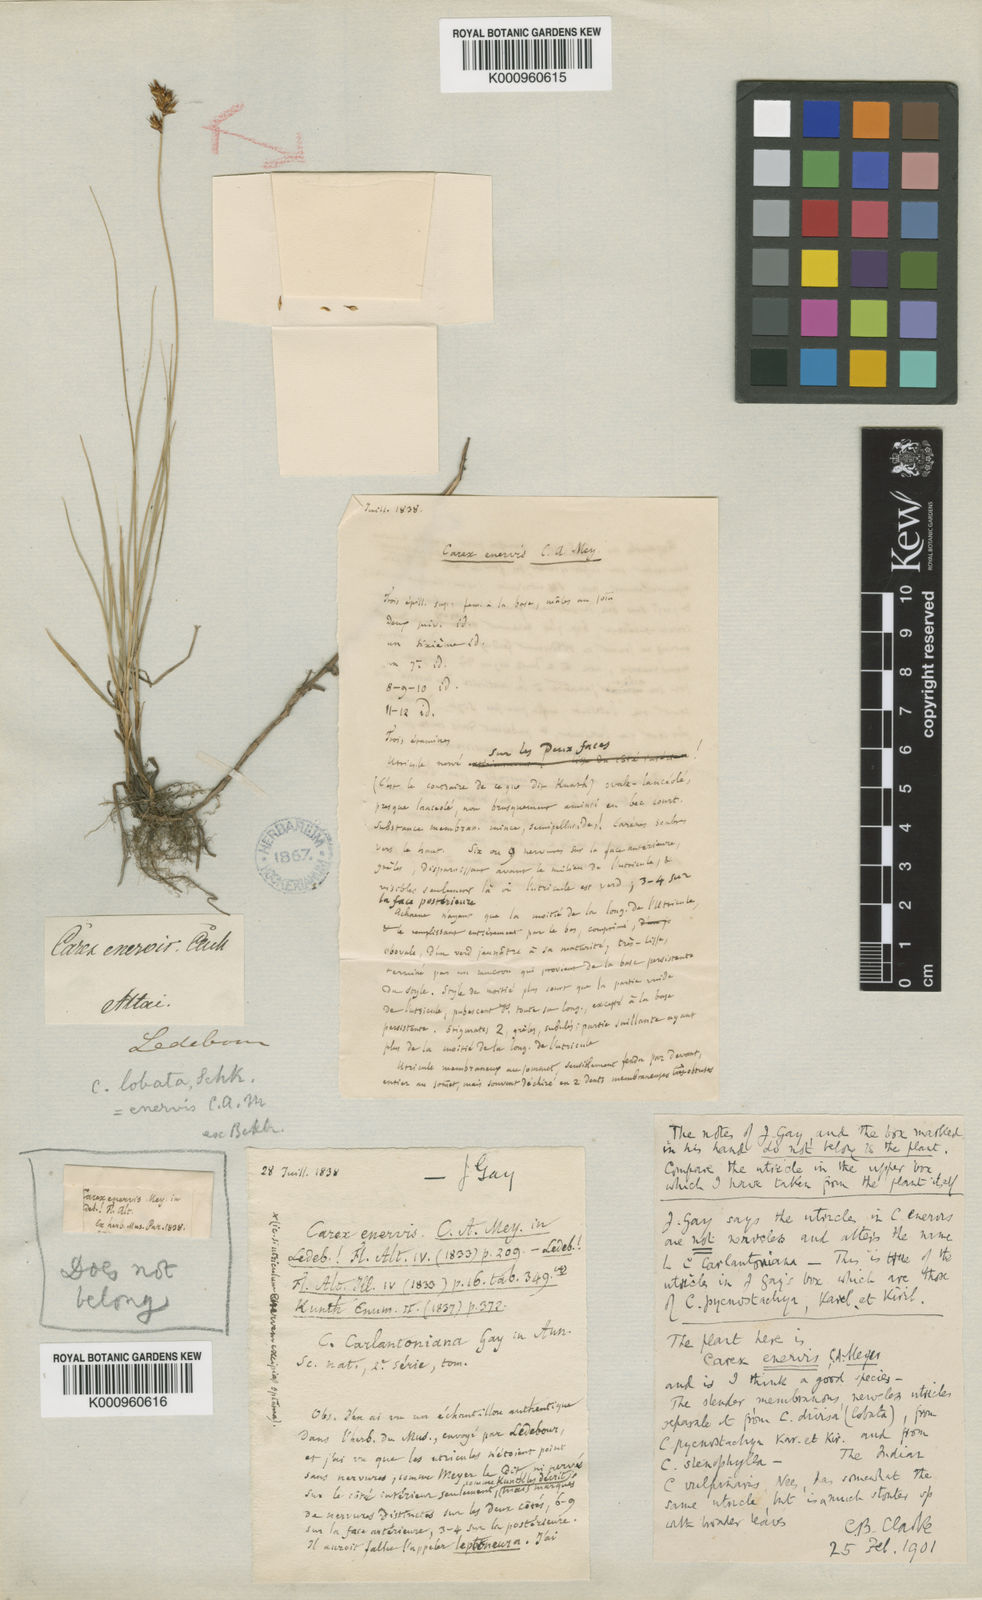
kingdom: Plantae
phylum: Tracheophyta
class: Liliopsida
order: Poales
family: Cyperaceae
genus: Carex
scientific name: Carex stenophylla
